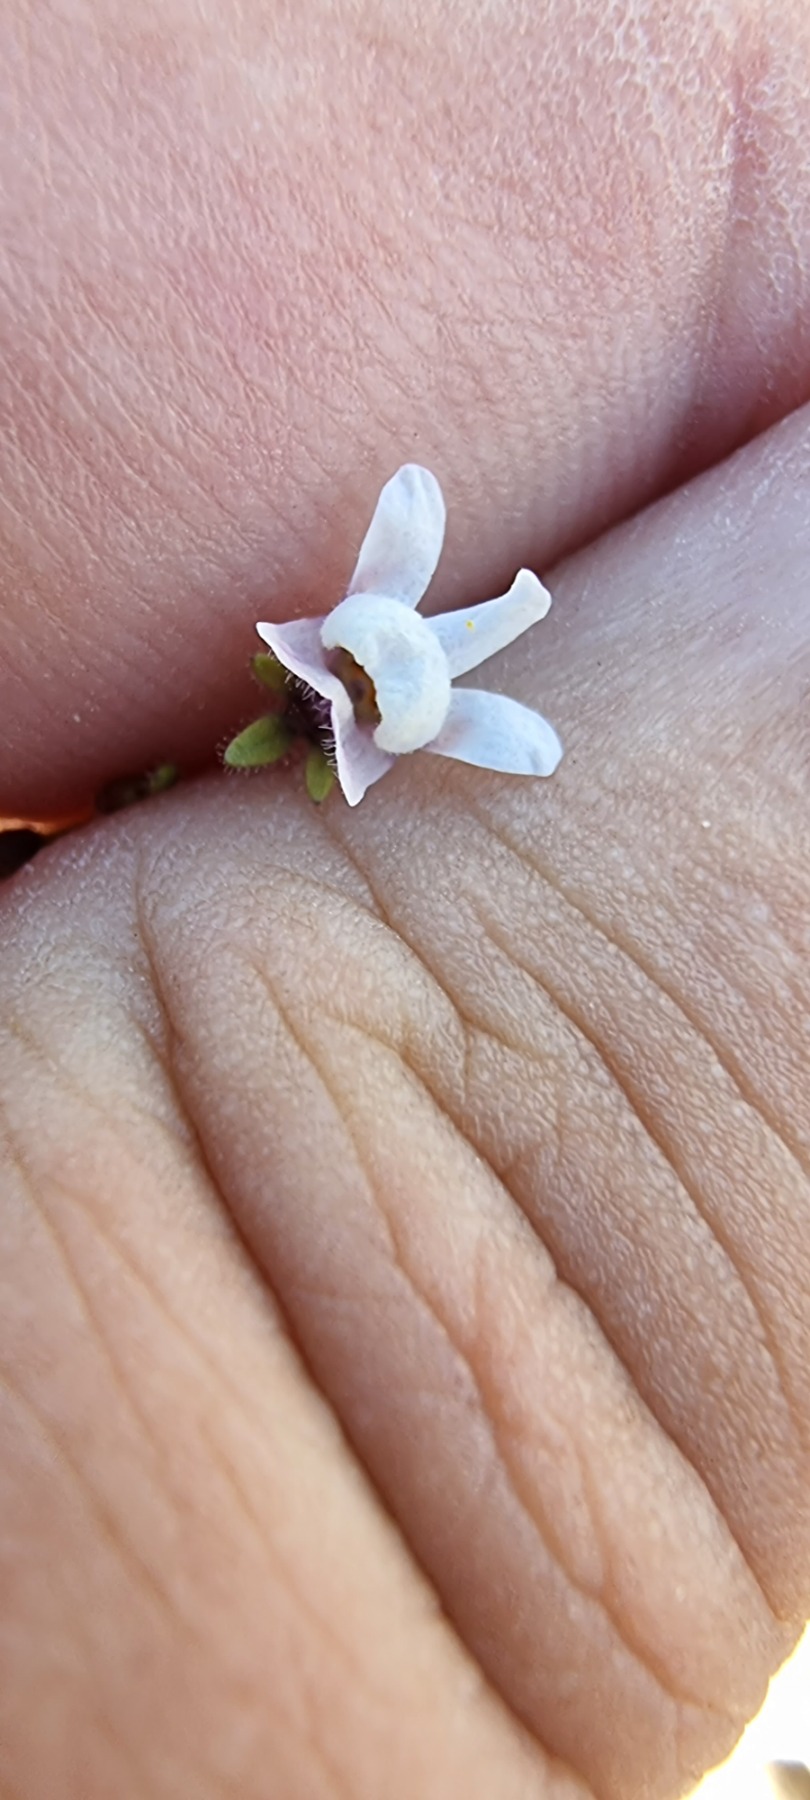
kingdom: Plantae
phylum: Tracheophyta
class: Magnoliopsida
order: Lamiales
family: Plantaginaceae
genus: Chaenorhinum
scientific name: Chaenorhinum minus
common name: Liden torskemund
